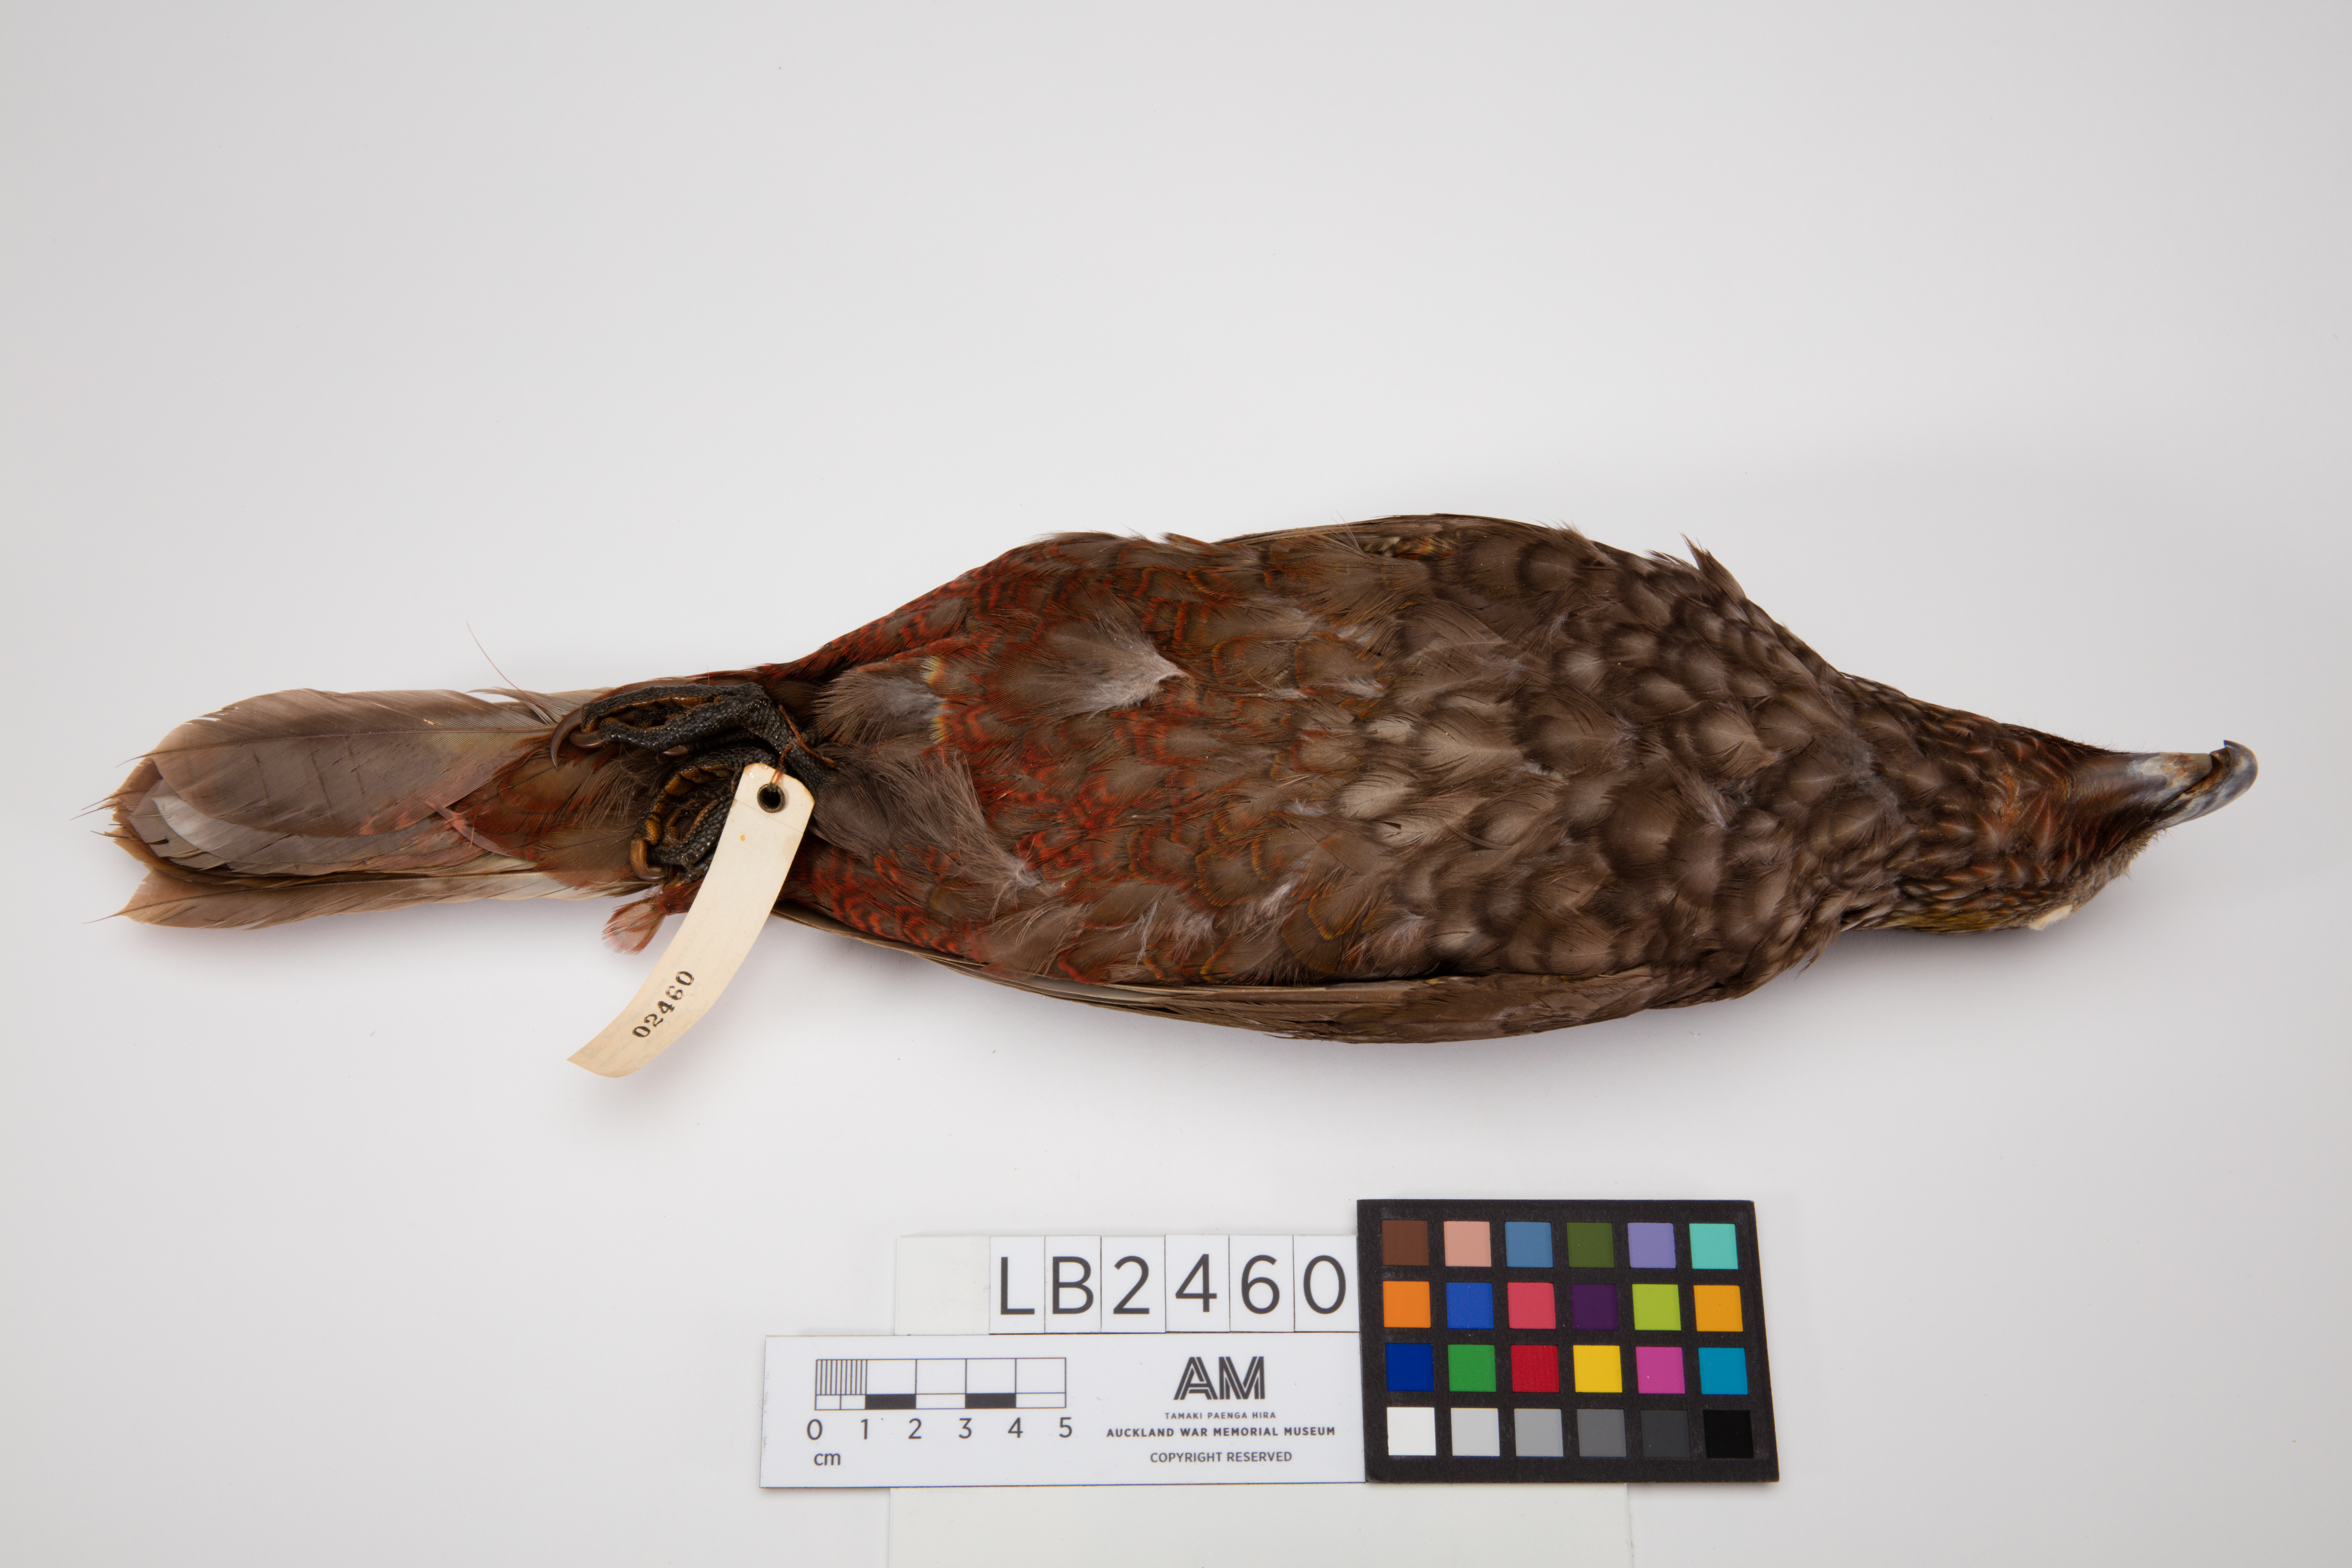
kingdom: Animalia
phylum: Chordata
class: Aves
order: Psittaciformes
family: Psittacidae
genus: Nestor
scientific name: Nestor meridionalis
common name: New zealand kaka
